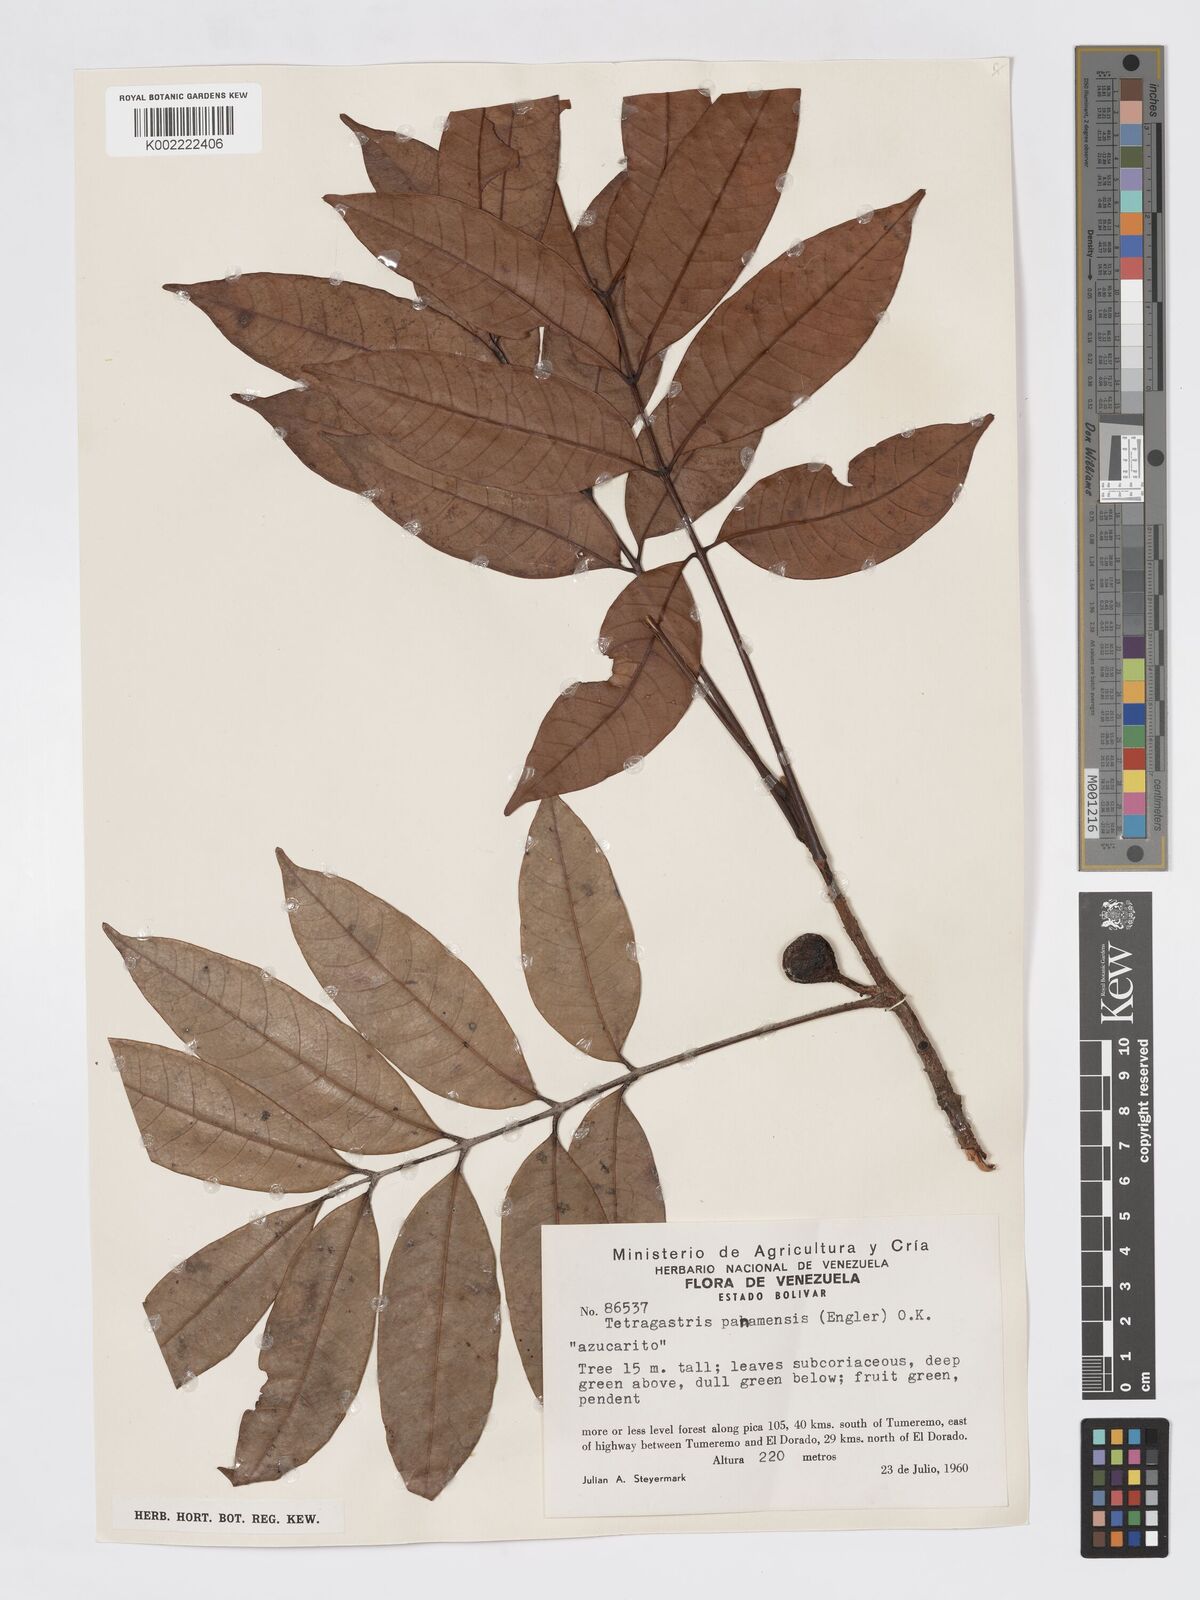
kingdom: Plantae
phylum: Tracheophyta
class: Magnoliopsida
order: Sapindales
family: Burseraceae
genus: Tetragastris
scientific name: Tetragastris panamensis
